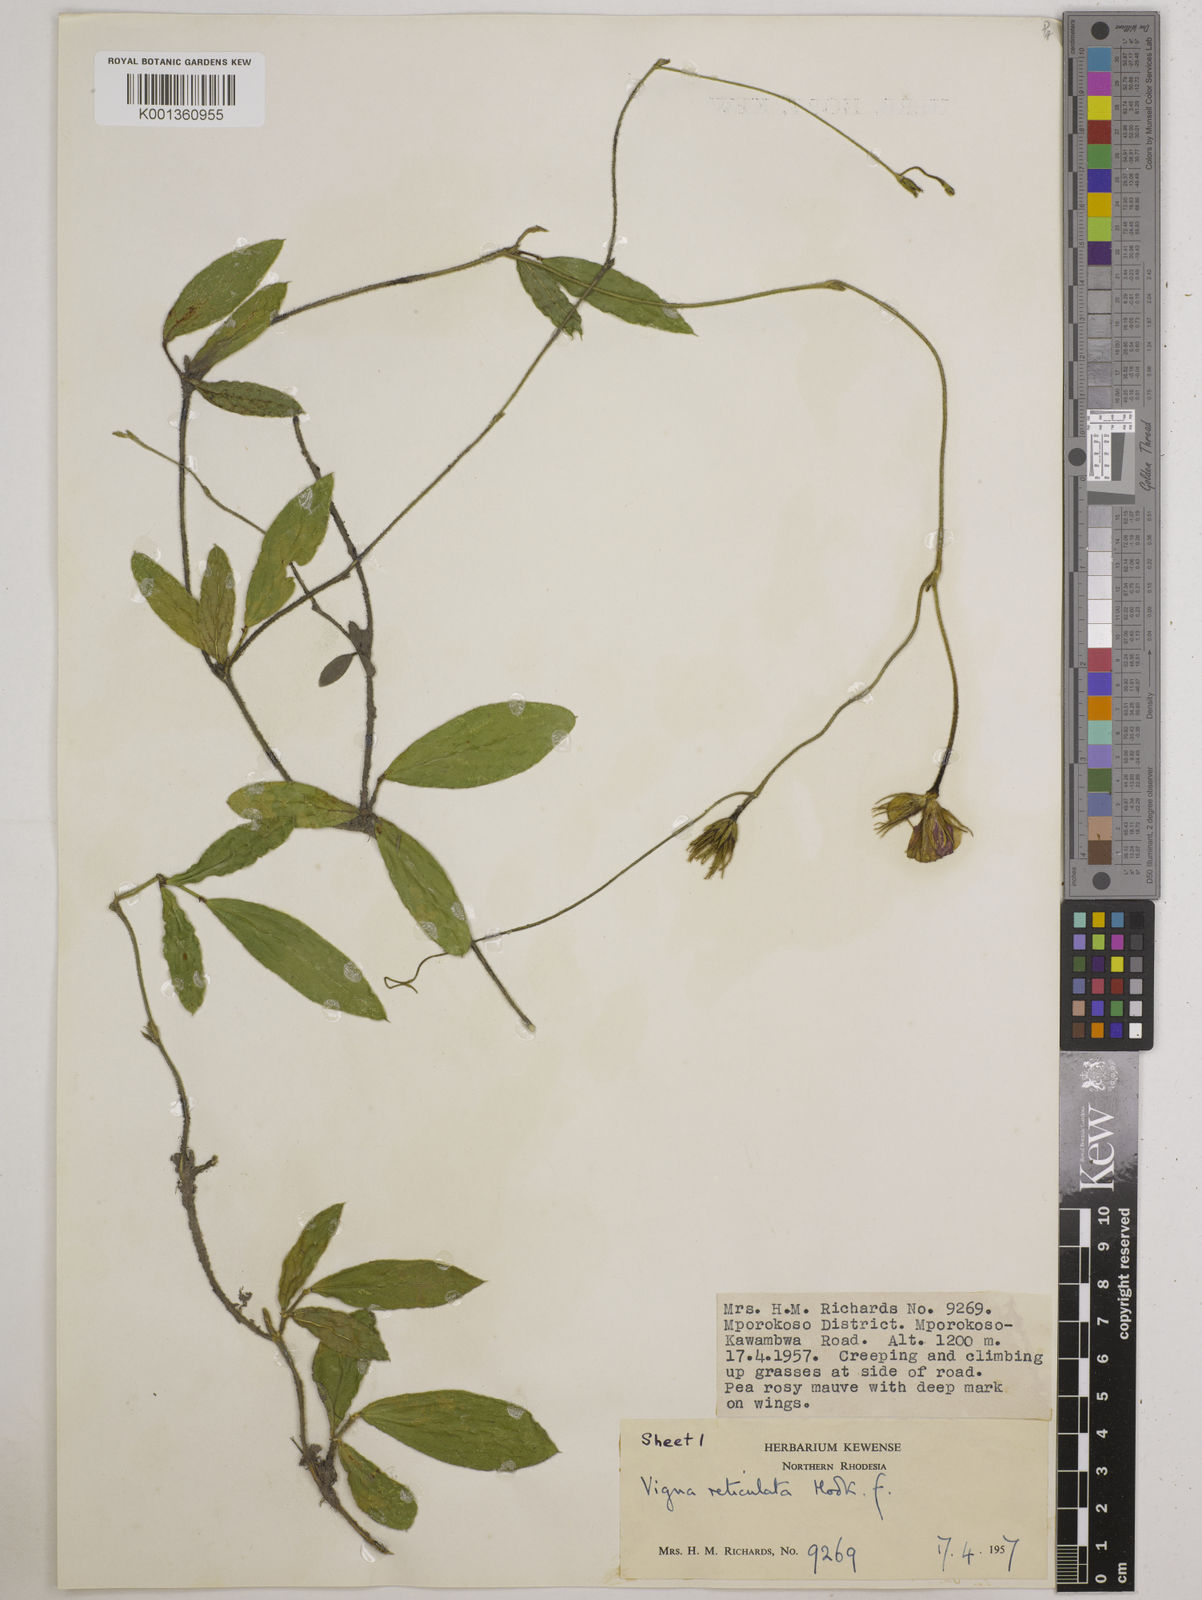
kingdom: Plantae
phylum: Tracheophyta
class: Magnoliopsida
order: Fabales
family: Fabaceae
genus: Vigna
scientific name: Vigna reticulata
